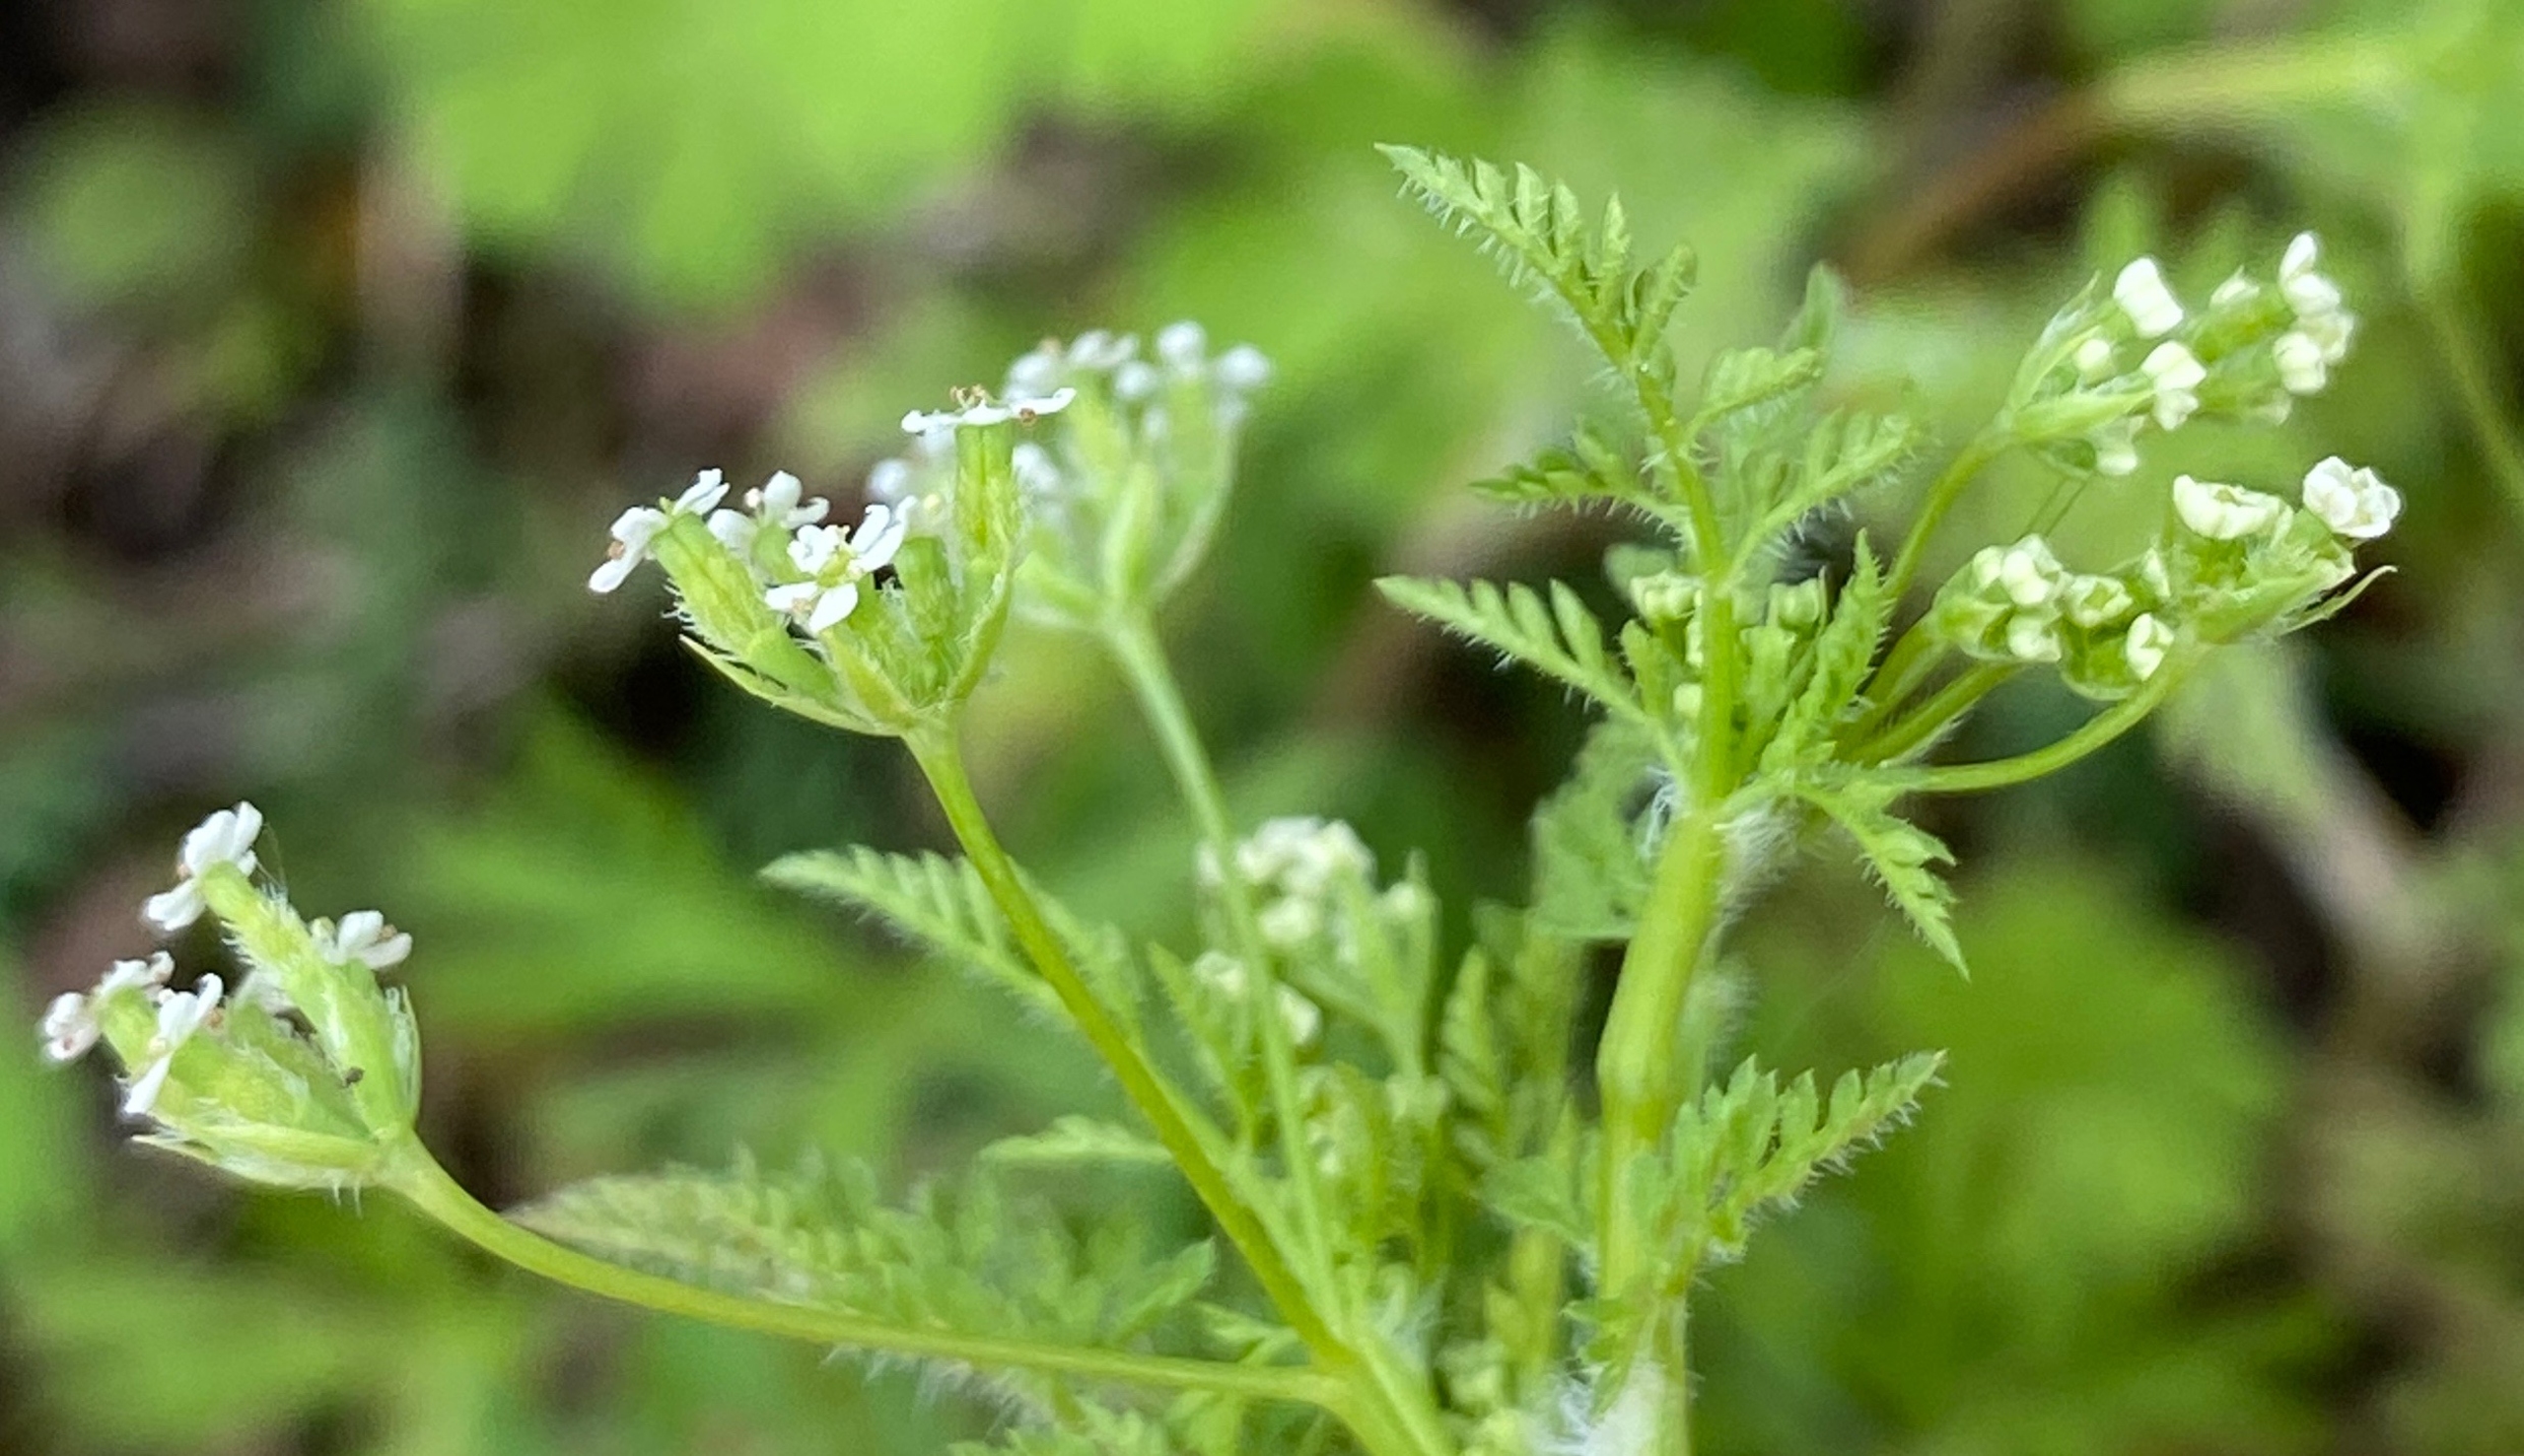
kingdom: Plantae
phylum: Tracheophyta
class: Magnoliopsida
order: Apiales
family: Apiaceae
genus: Anthriscus
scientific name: Anthriscus caucalis
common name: Gærde-kørvel
